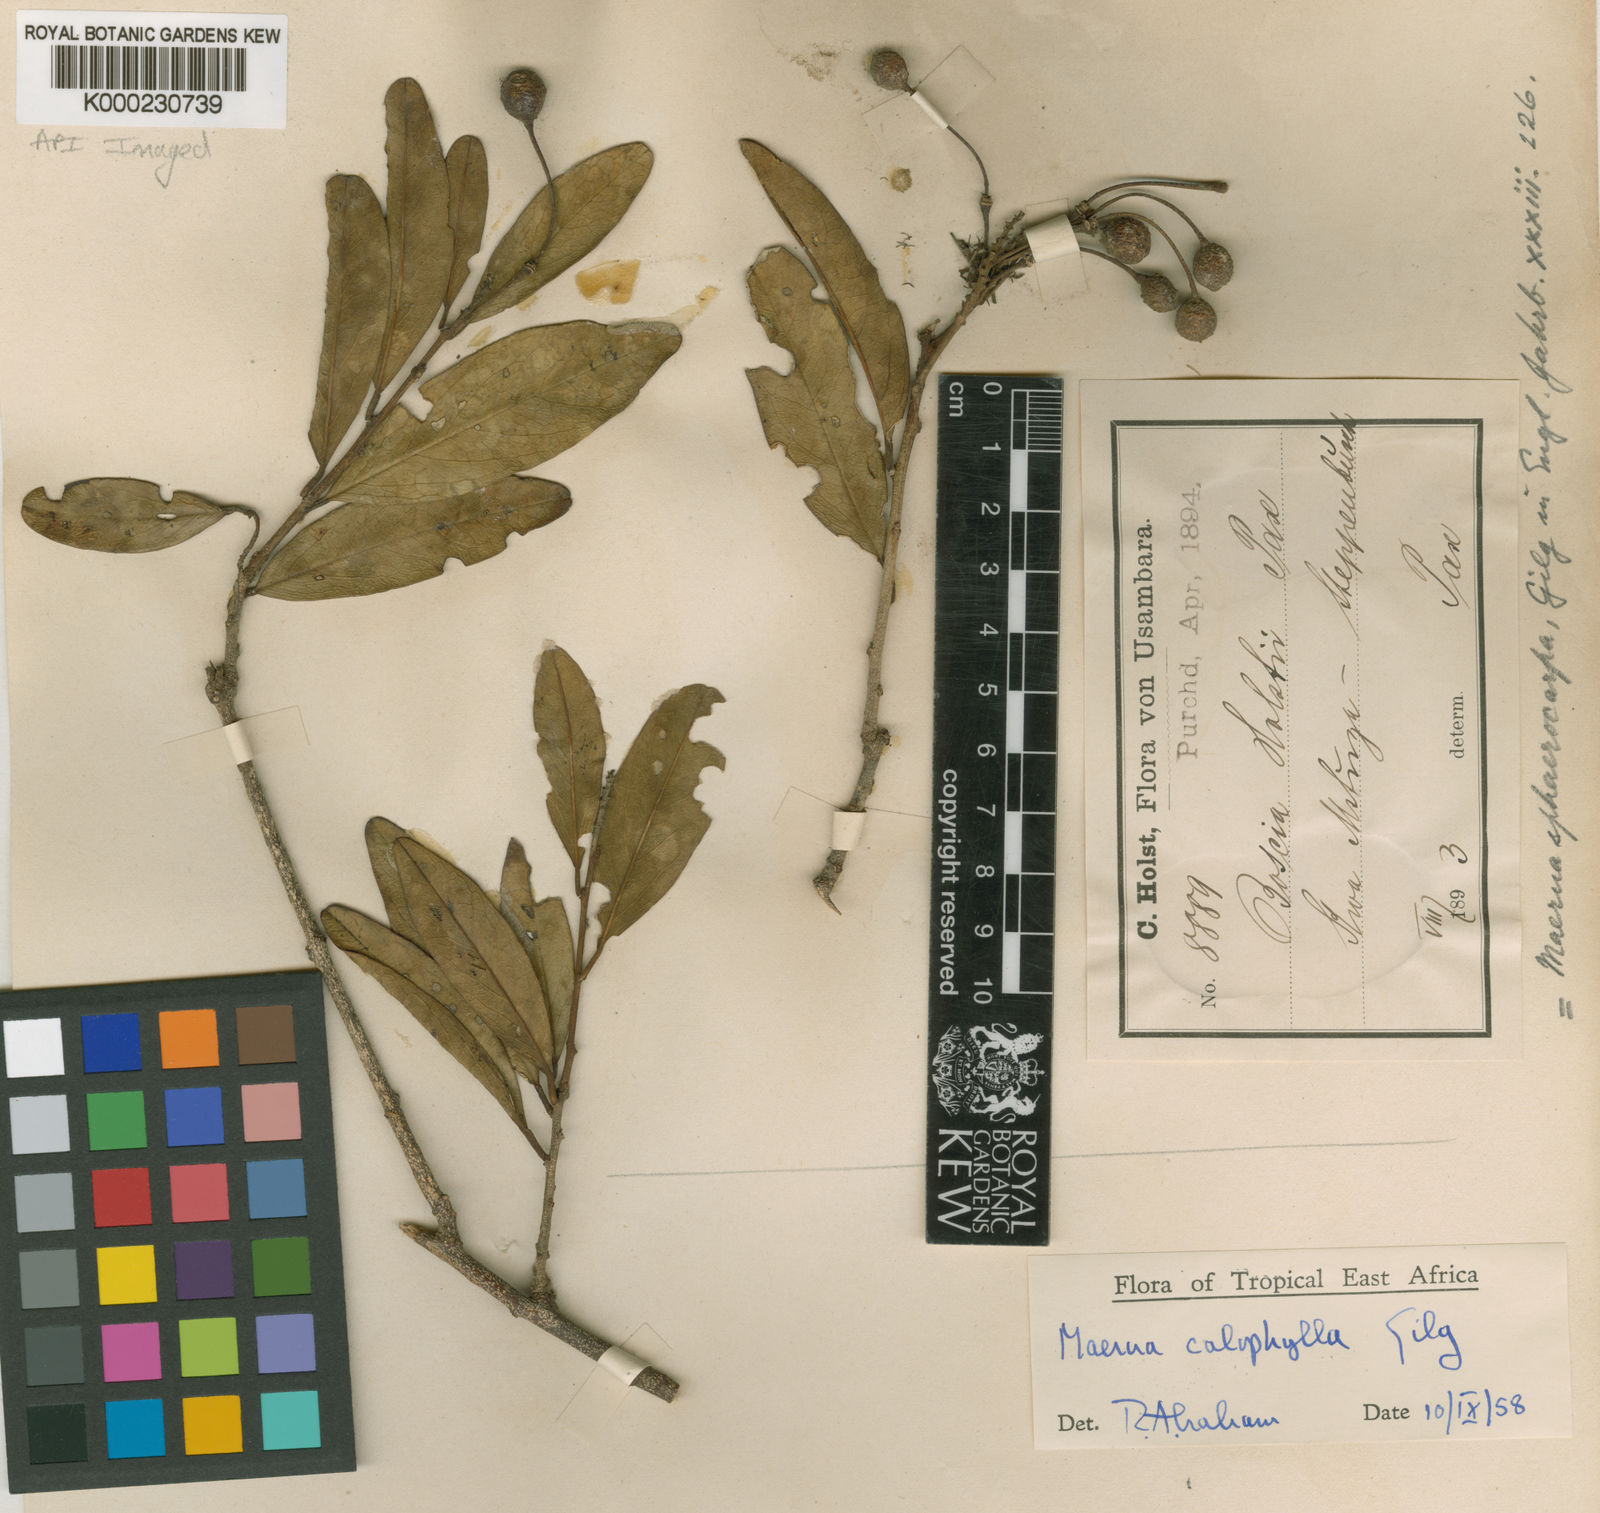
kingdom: Plantae
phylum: Tracheophyta
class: Magnoliopsida
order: Brassicales
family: Capparaceae
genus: Maerua
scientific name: Maerua
